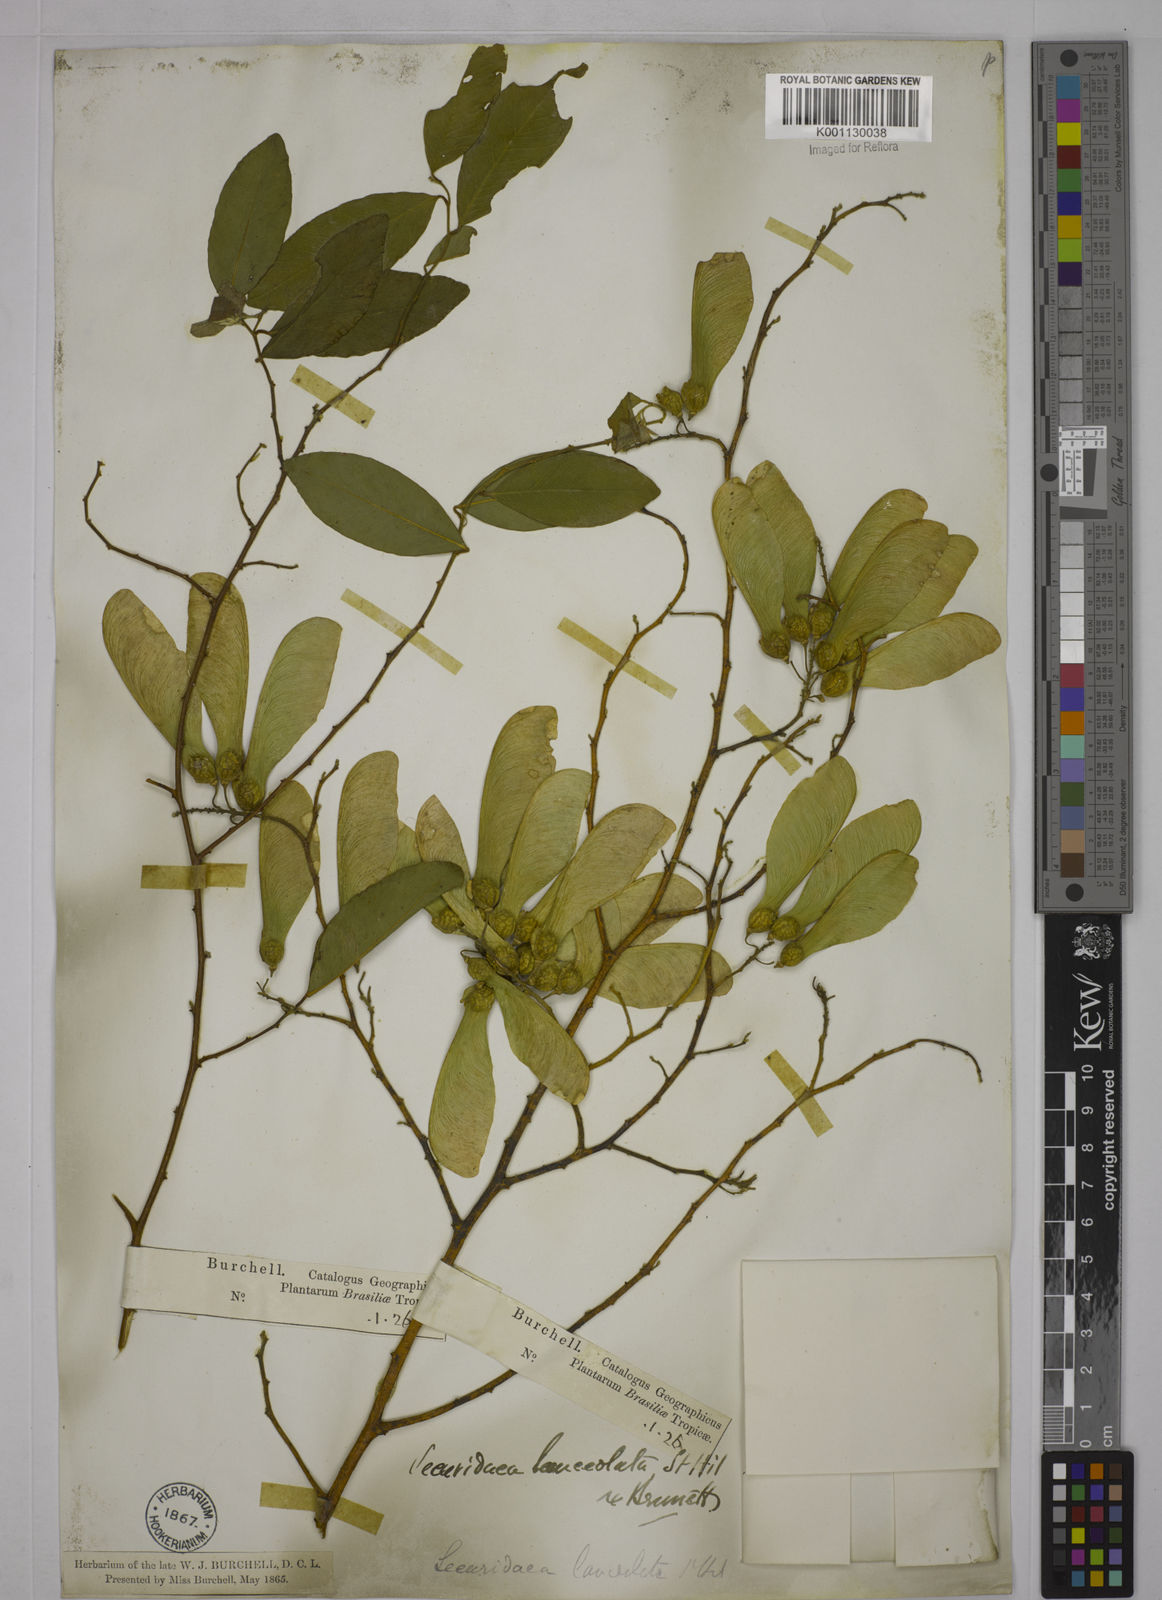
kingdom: Plantae
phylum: Tracheophyta
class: Magnoliopsida
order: Fabales
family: Polygalaceae
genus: Securidaca
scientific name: Securidaca lanceolata
